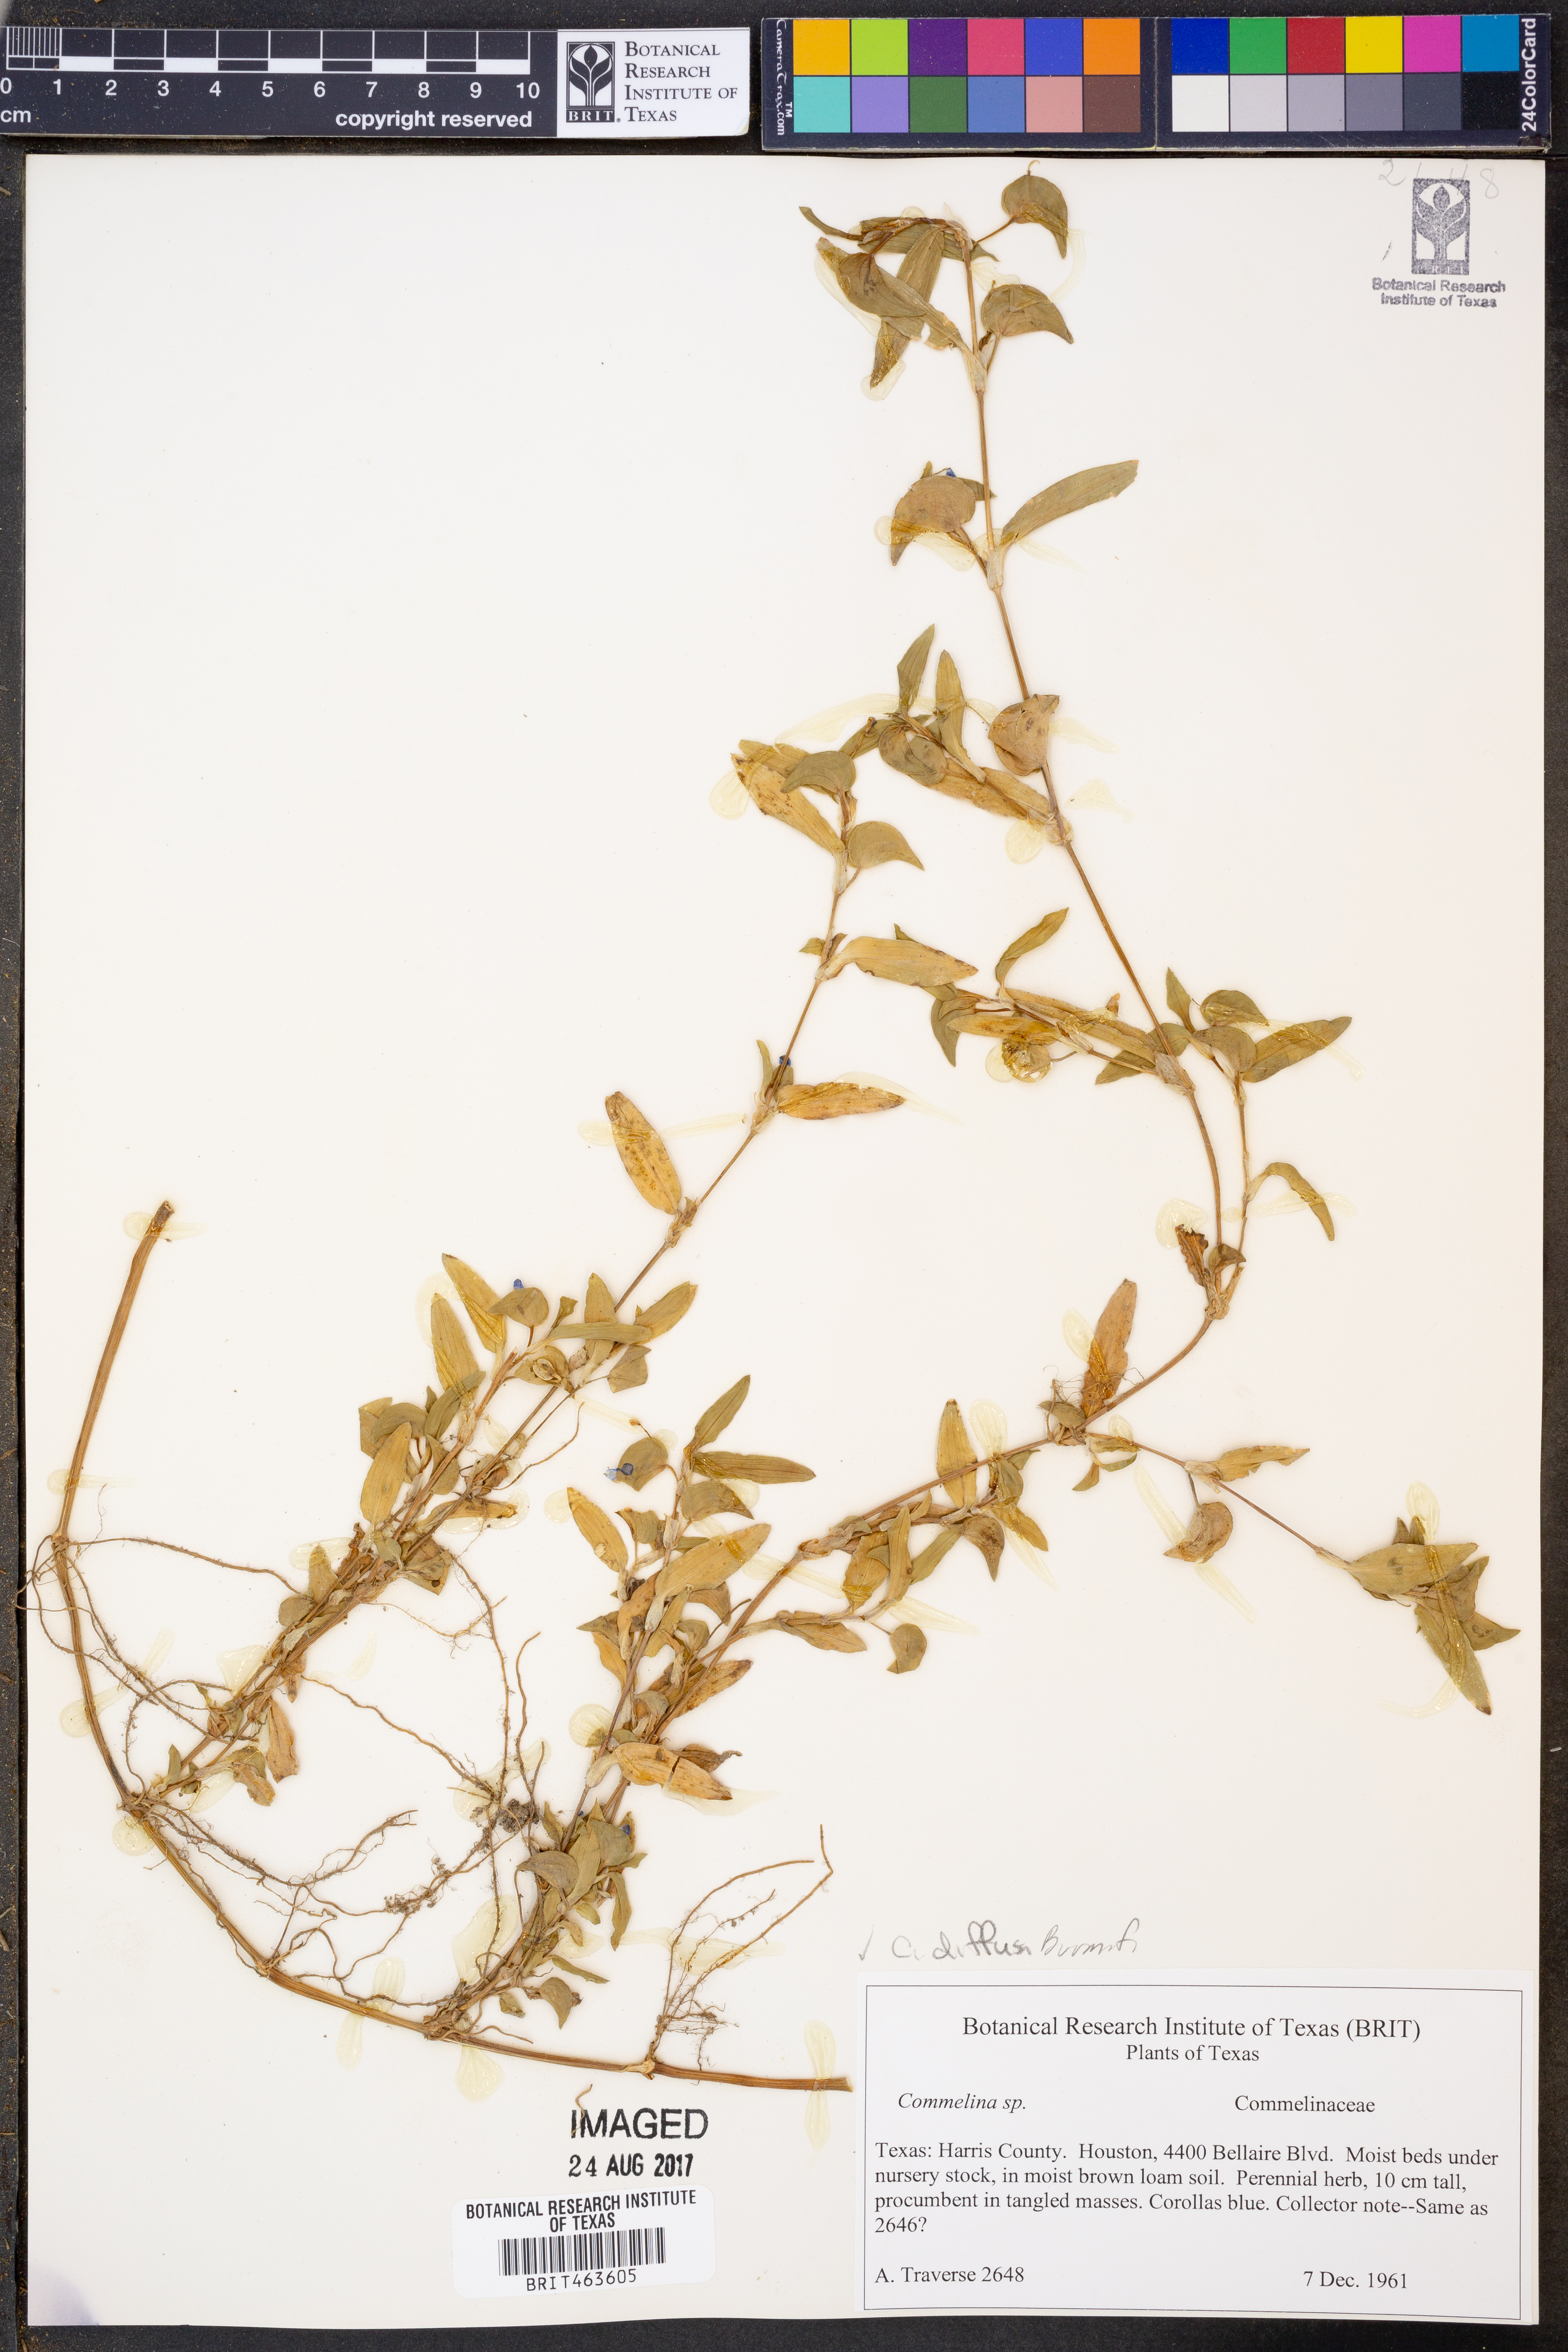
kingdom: Plantae
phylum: Tracheophyta
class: Liliopsida
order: Commelinales
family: Commelinaceae
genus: Commelina
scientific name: Commelina diffusa
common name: Climbing dayflower
